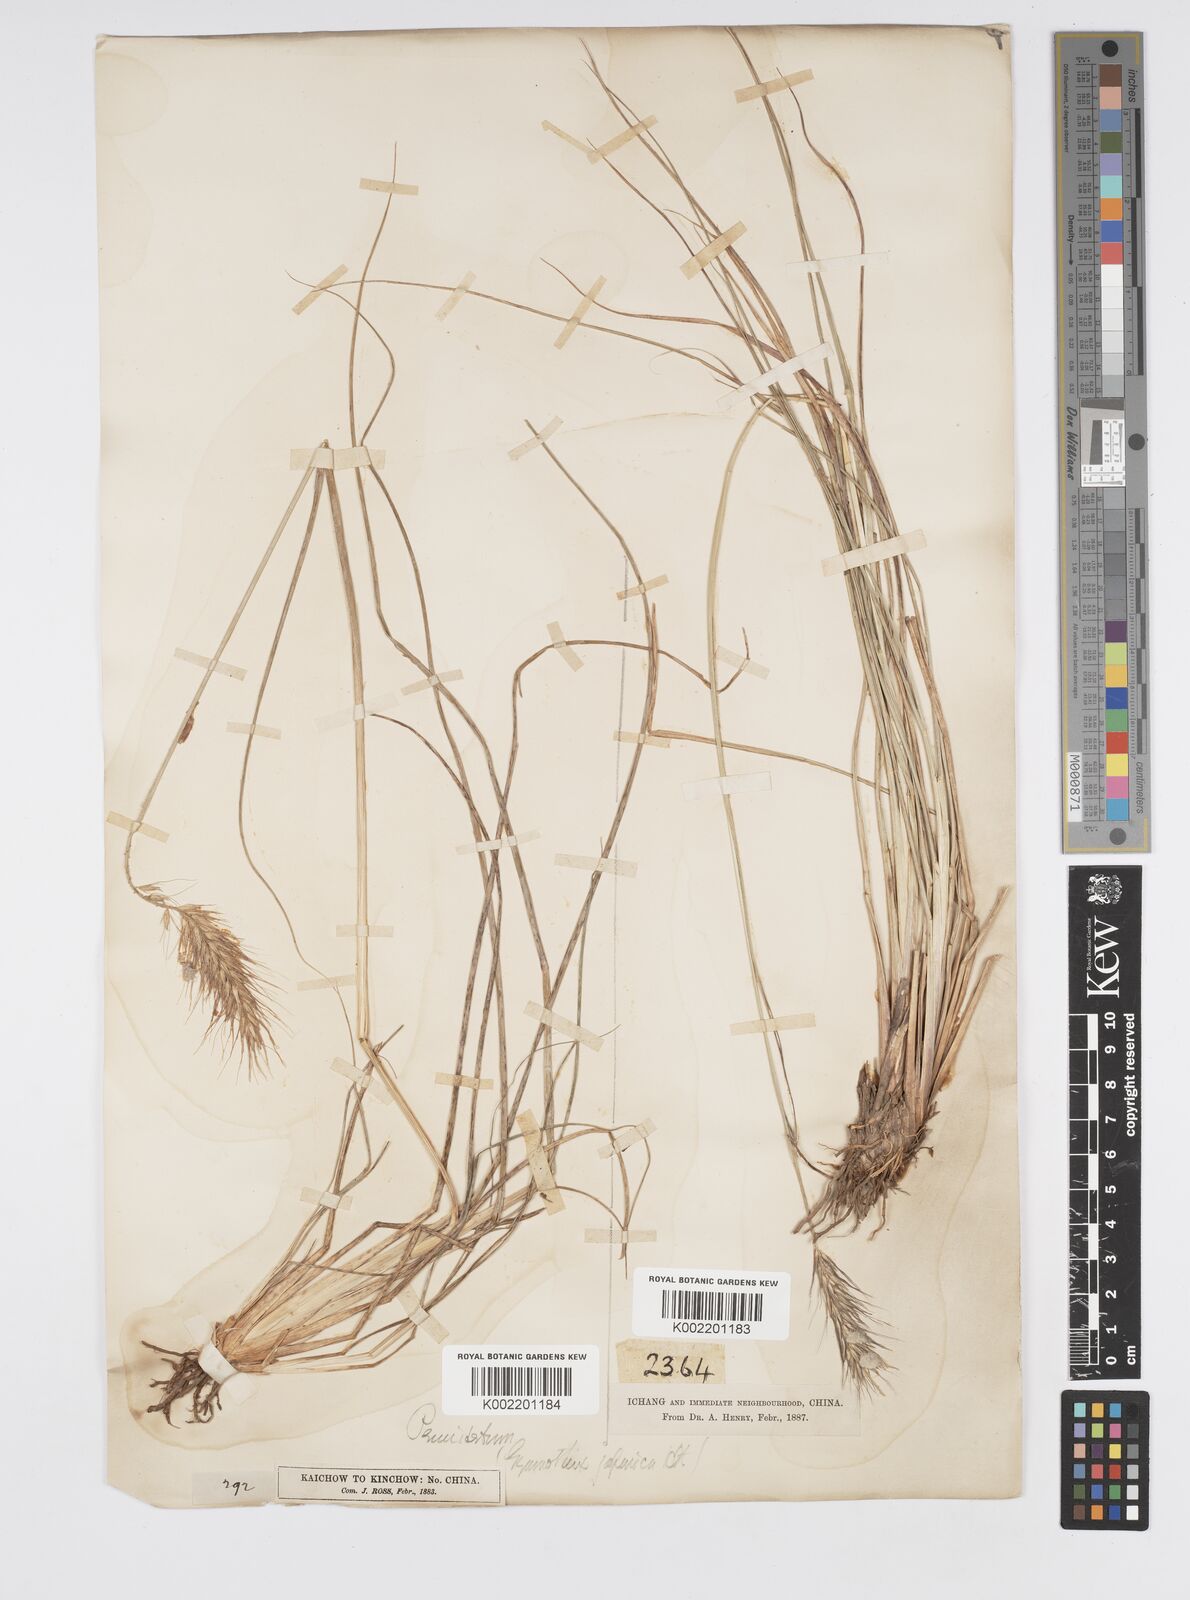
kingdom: Plantae
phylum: Tracheophyta
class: Liliopsida
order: Poales
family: Poaceae
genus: Cenchrus
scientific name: Cenchrus alopecuroides
